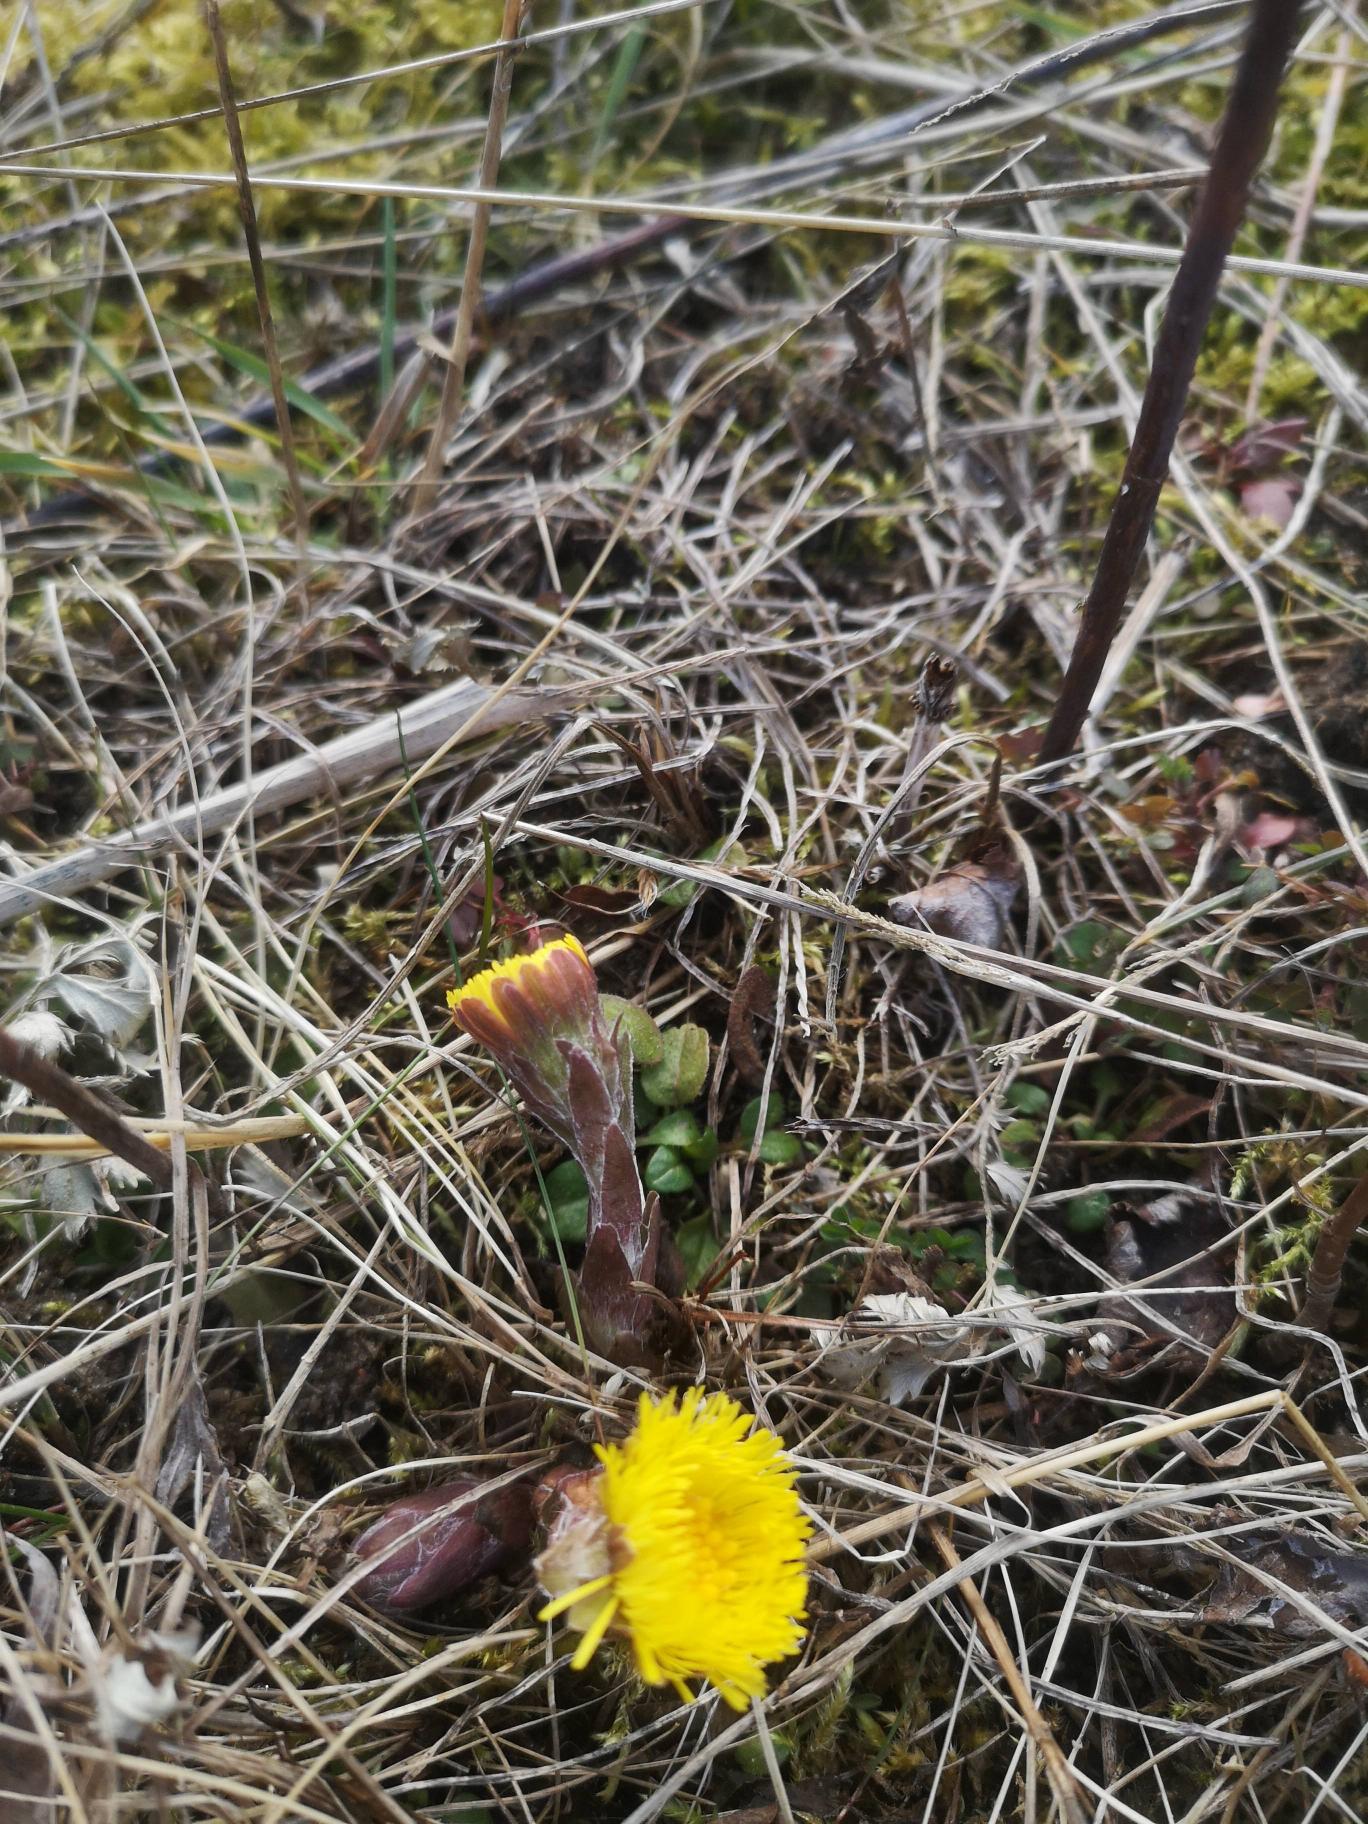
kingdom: Plantae
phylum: Tracheophyta
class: Magnoliopsida
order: Asterales
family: Asteraceae
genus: Tussilago
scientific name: Tussilago farfara
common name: Følfod
